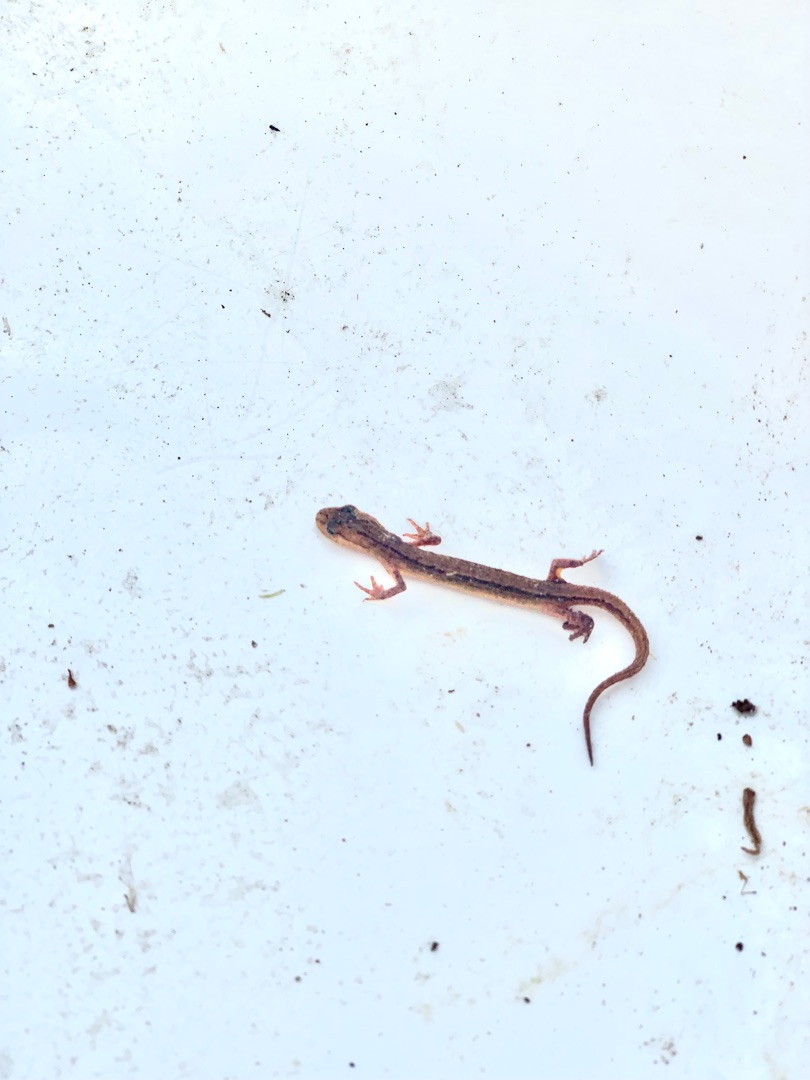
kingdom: Animalia
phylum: Chordata
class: Amphibia
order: Caudata
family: Salamandridae
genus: Lissotriton
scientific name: Lissotriton vulgaris
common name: Lille vandsalamander
